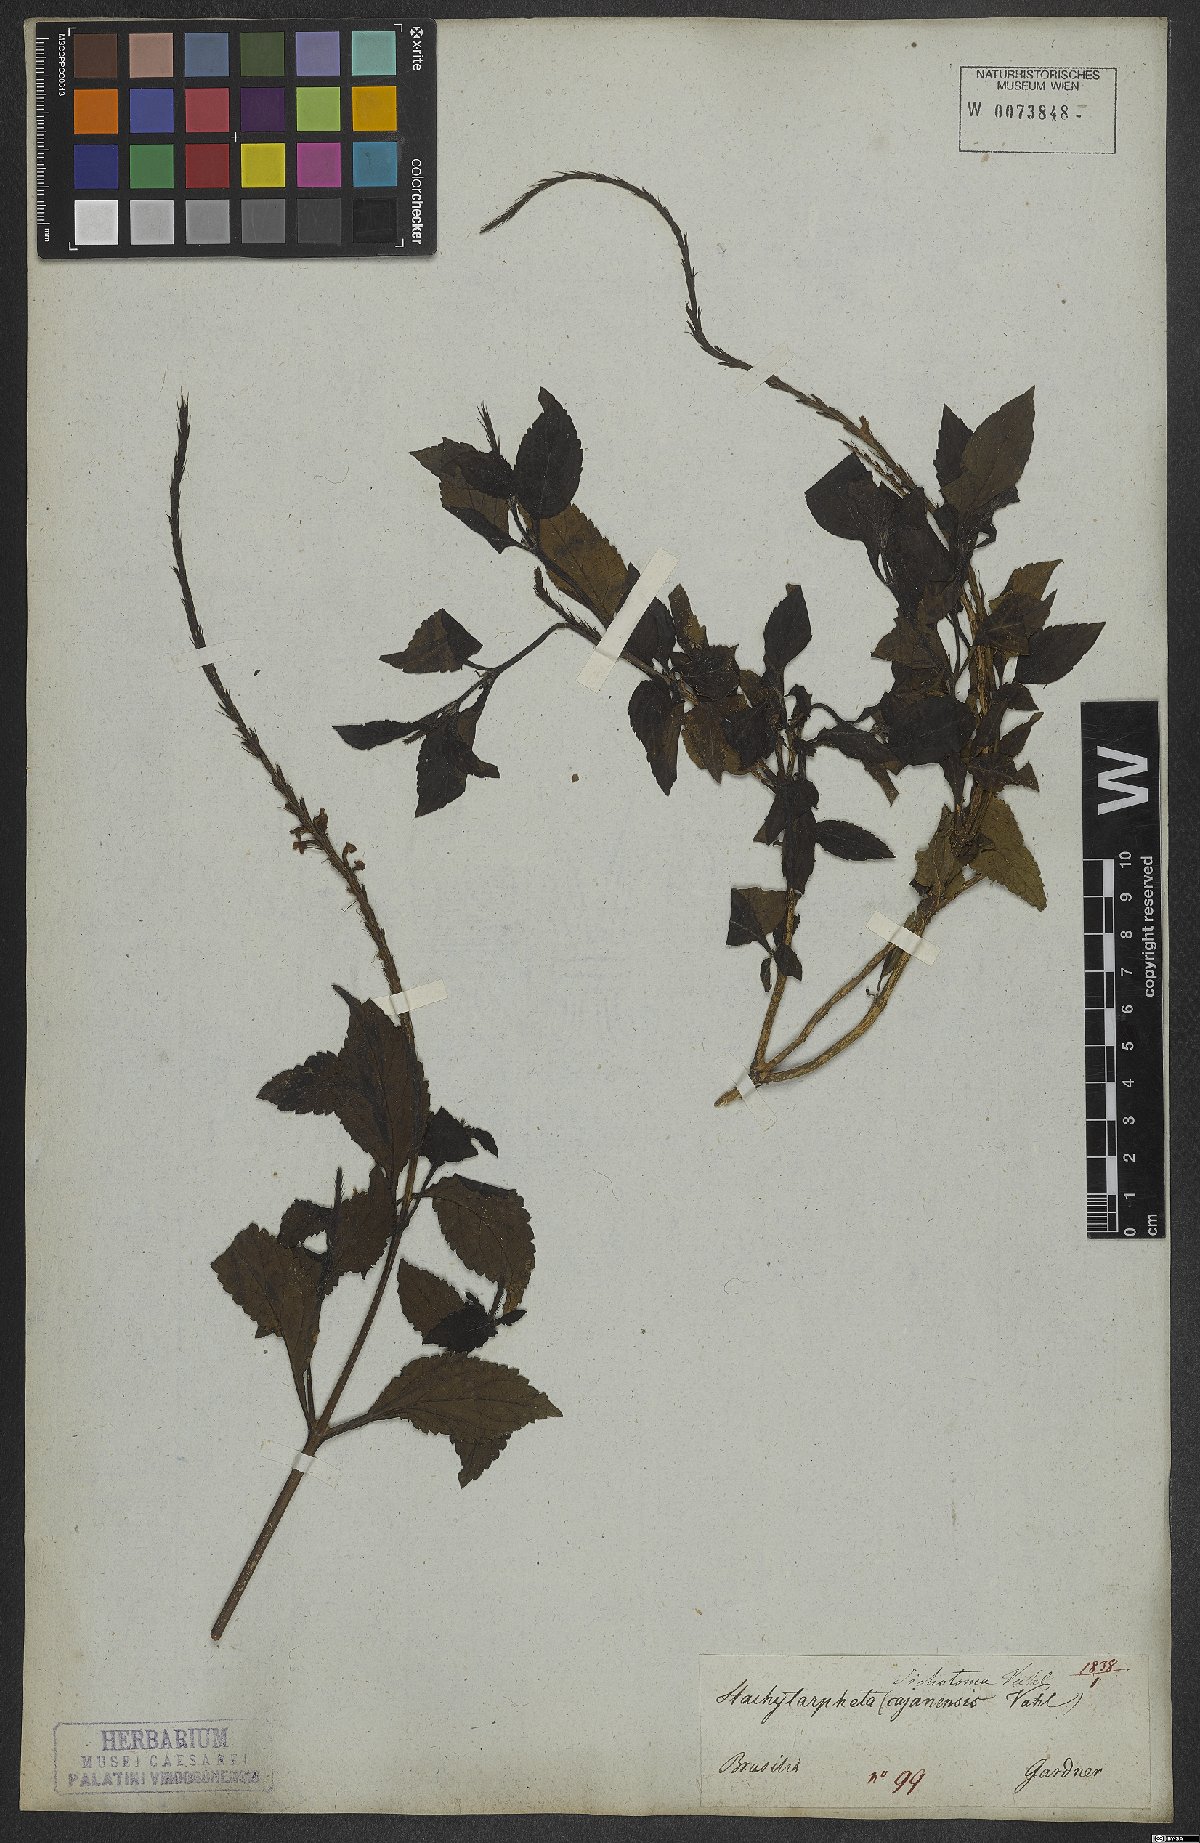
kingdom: Plantae
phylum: Tracheophyta
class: Magnoliopsida
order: Lamiales
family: Verbenaceae
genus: Stachytarpheta
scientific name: Stachytarpheta cayennensis
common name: Cayenne porterweed
